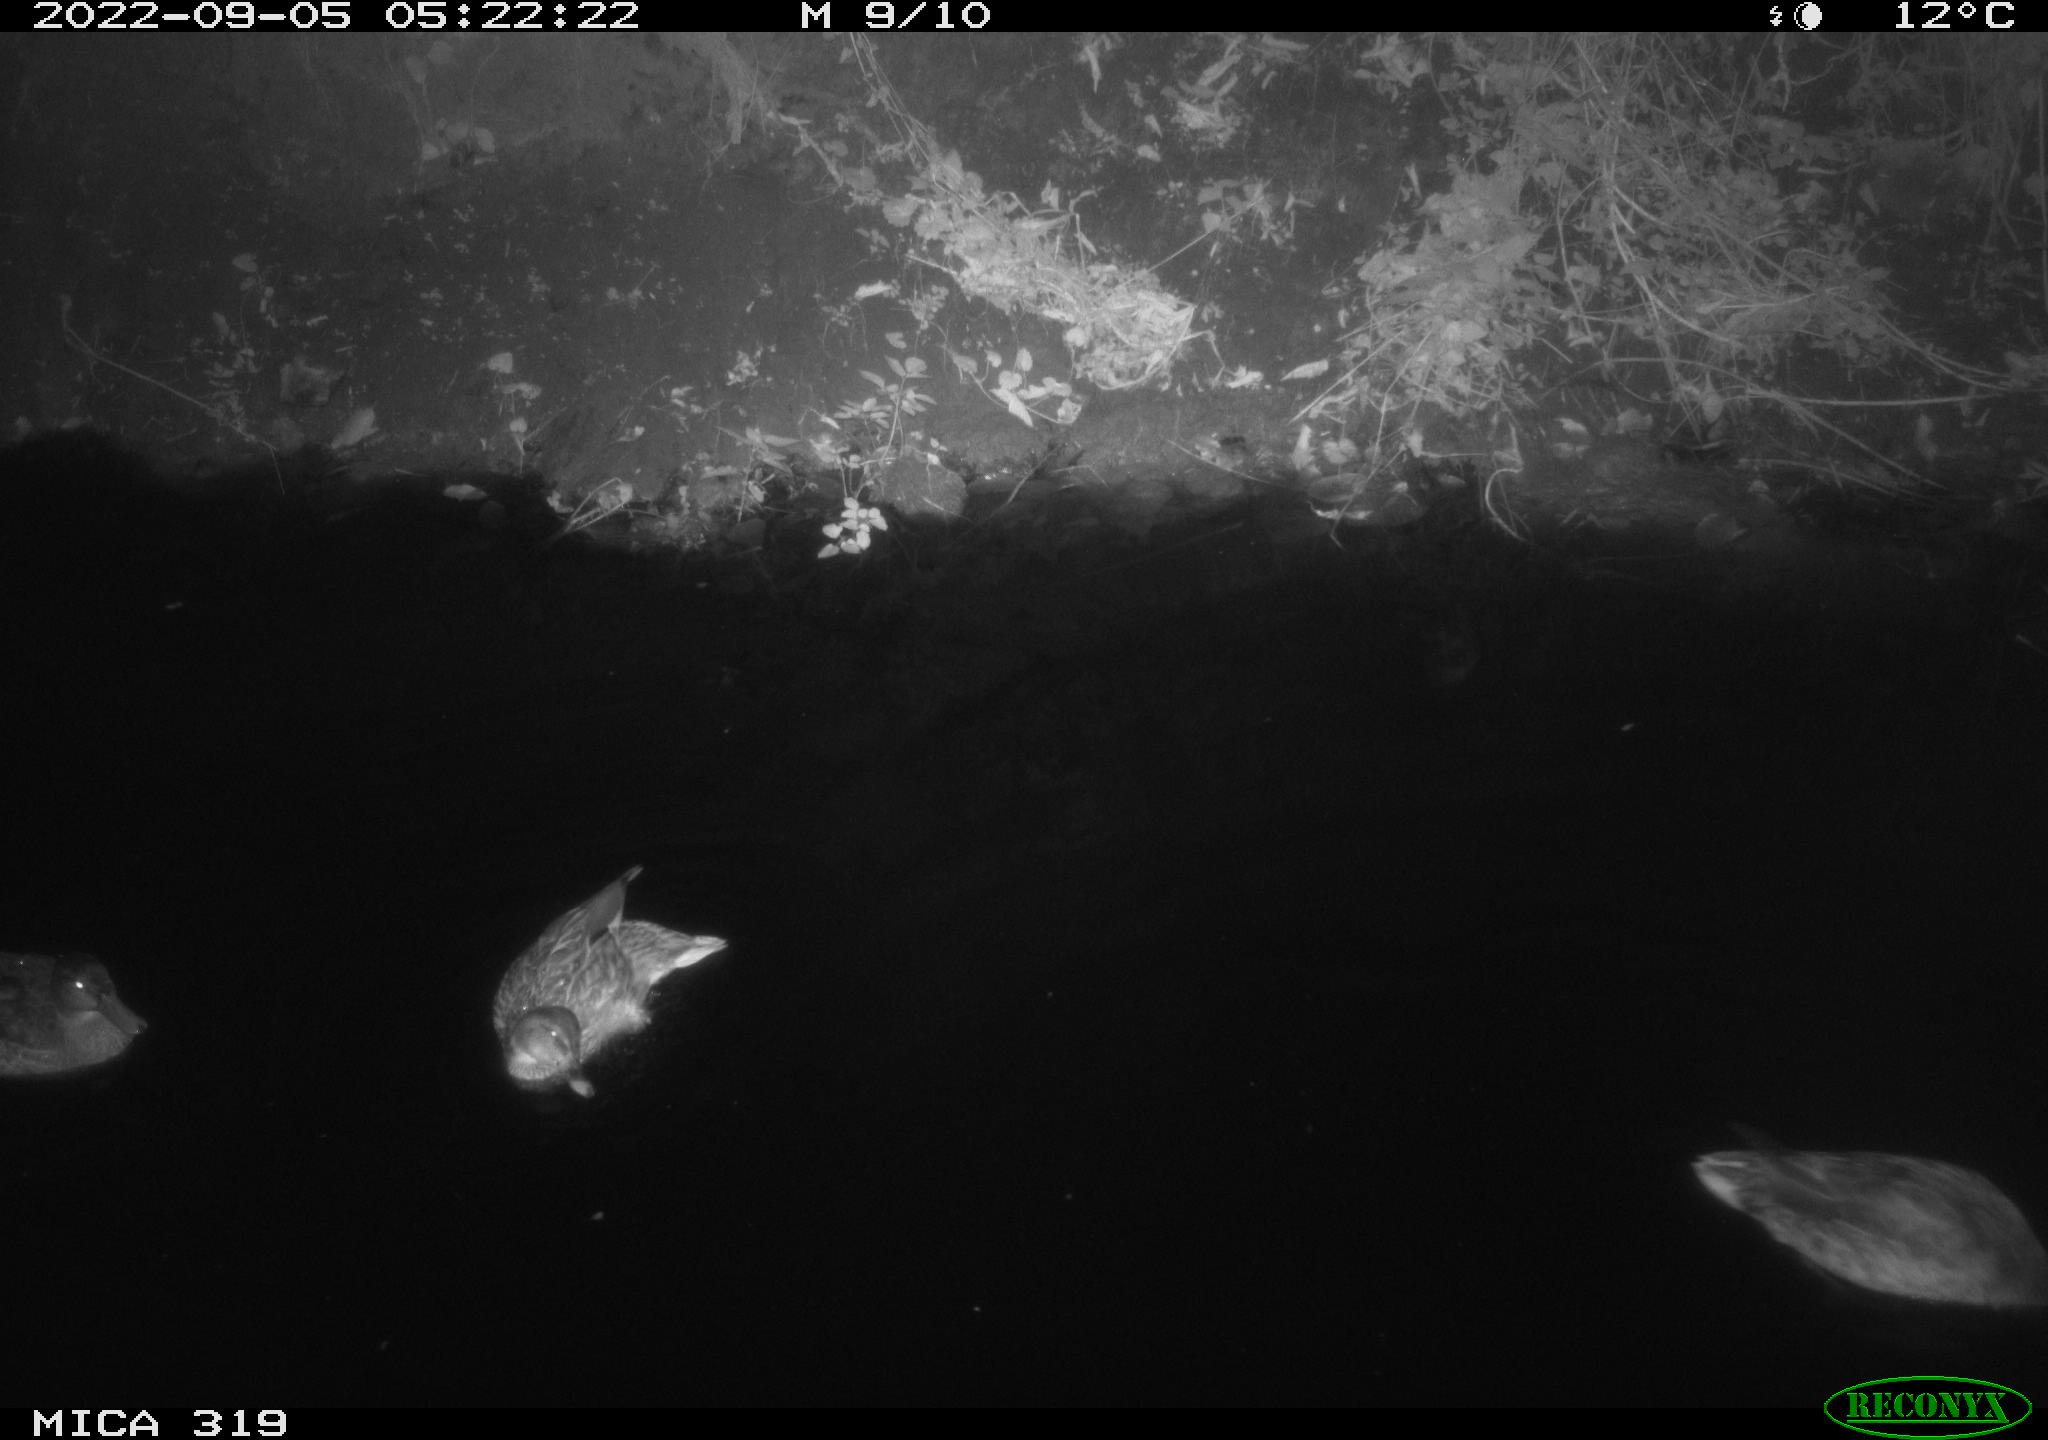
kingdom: Animalia
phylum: Chordata
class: Aves
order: Anseriformes
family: Anatidae
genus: Anas
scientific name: Anas
